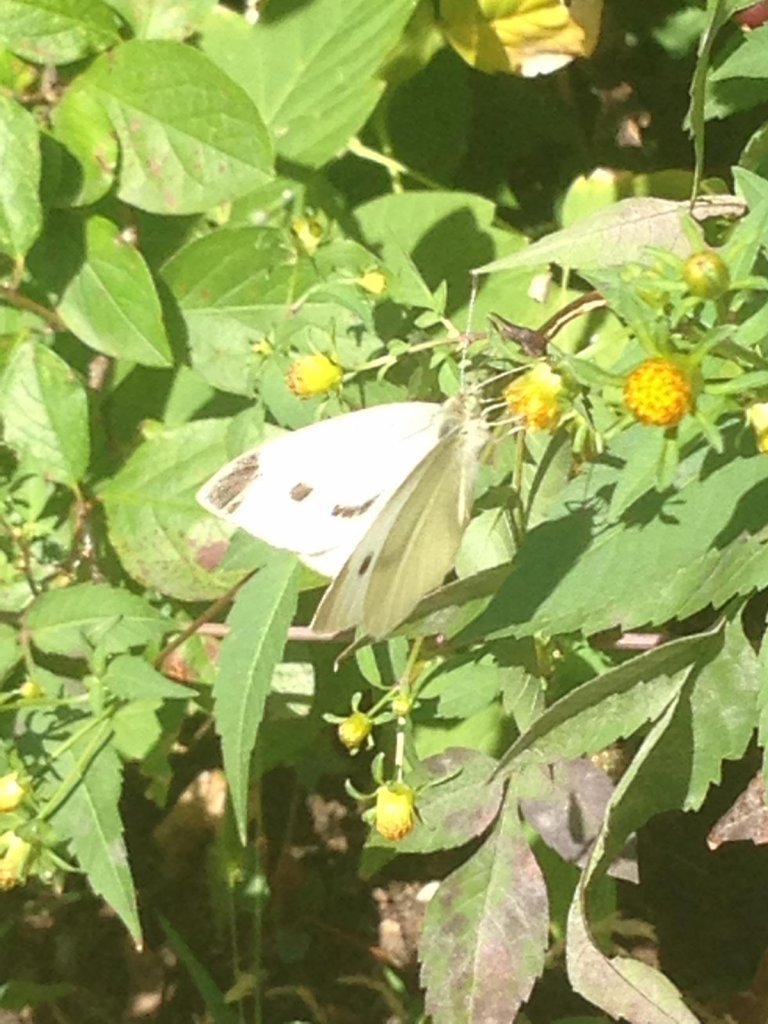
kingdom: Animalia
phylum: Arthropoda
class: Insecta
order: Lepidoptera
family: Pieridae
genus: Pieris
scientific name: Pieris rapae
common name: Cabbage White
